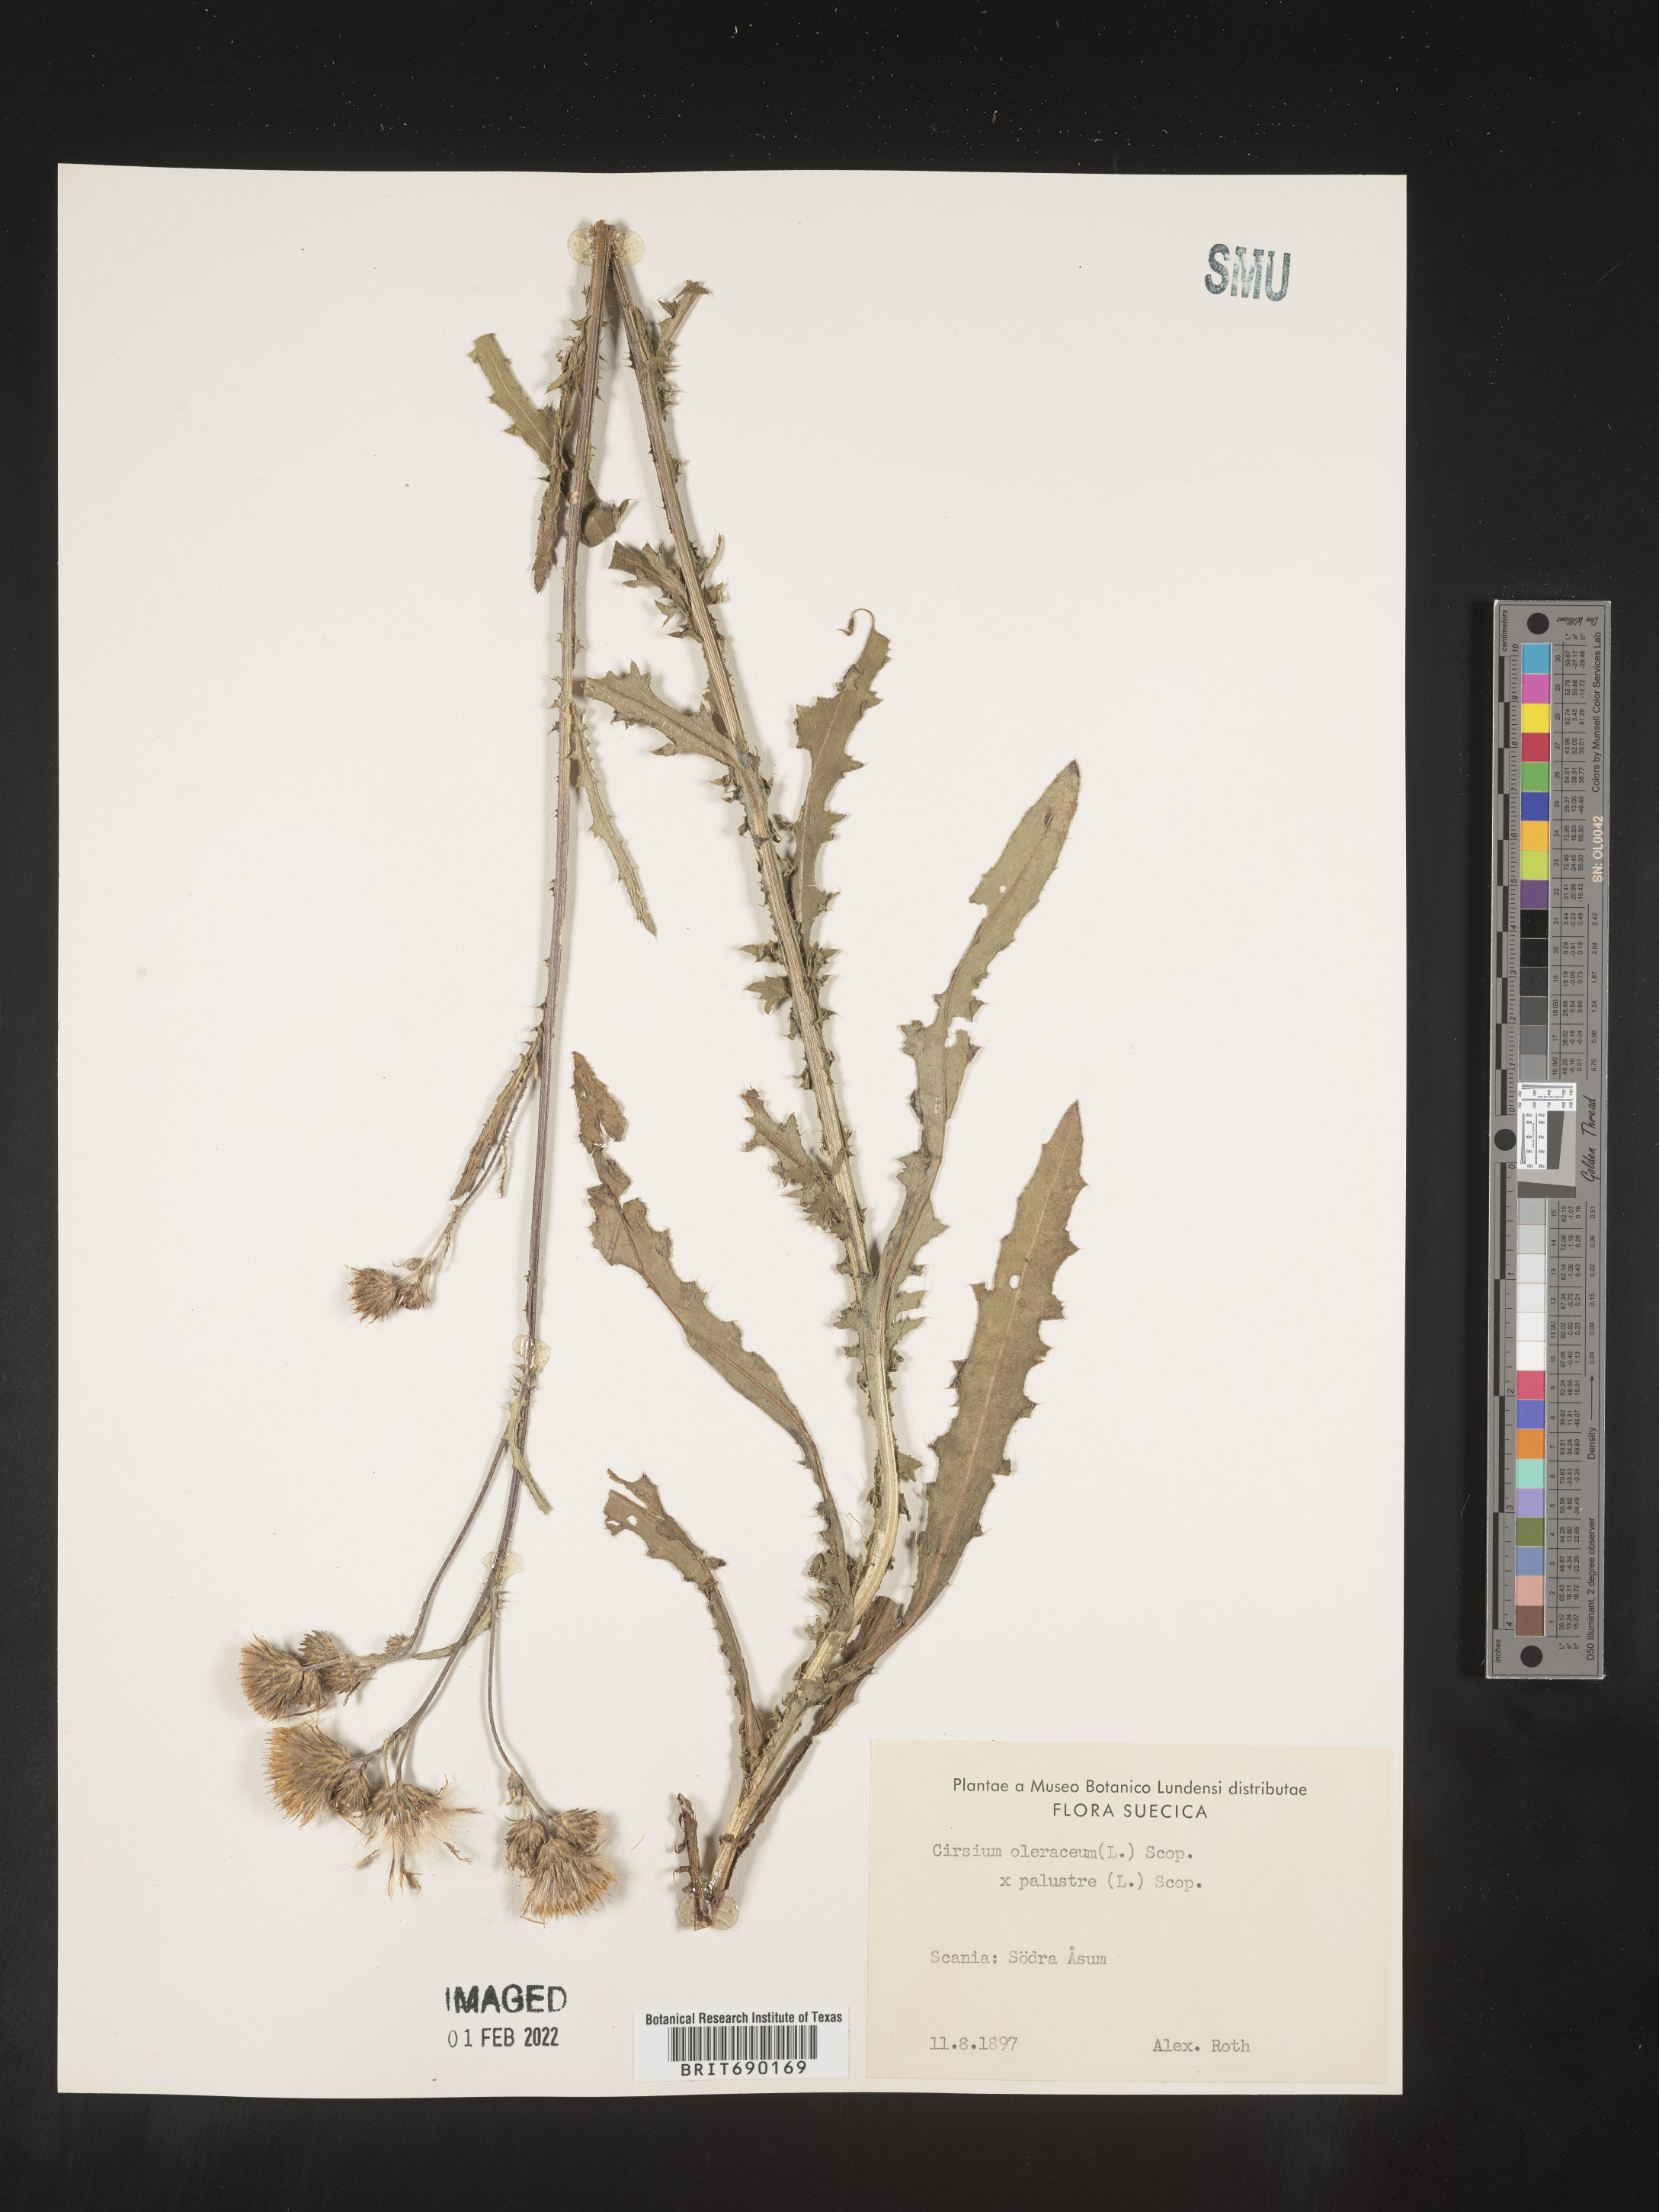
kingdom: Plantae
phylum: Tracheophyta
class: Magnoliopsida
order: Asterales
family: Asteraceae
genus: Cirsium
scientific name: Cirsium
